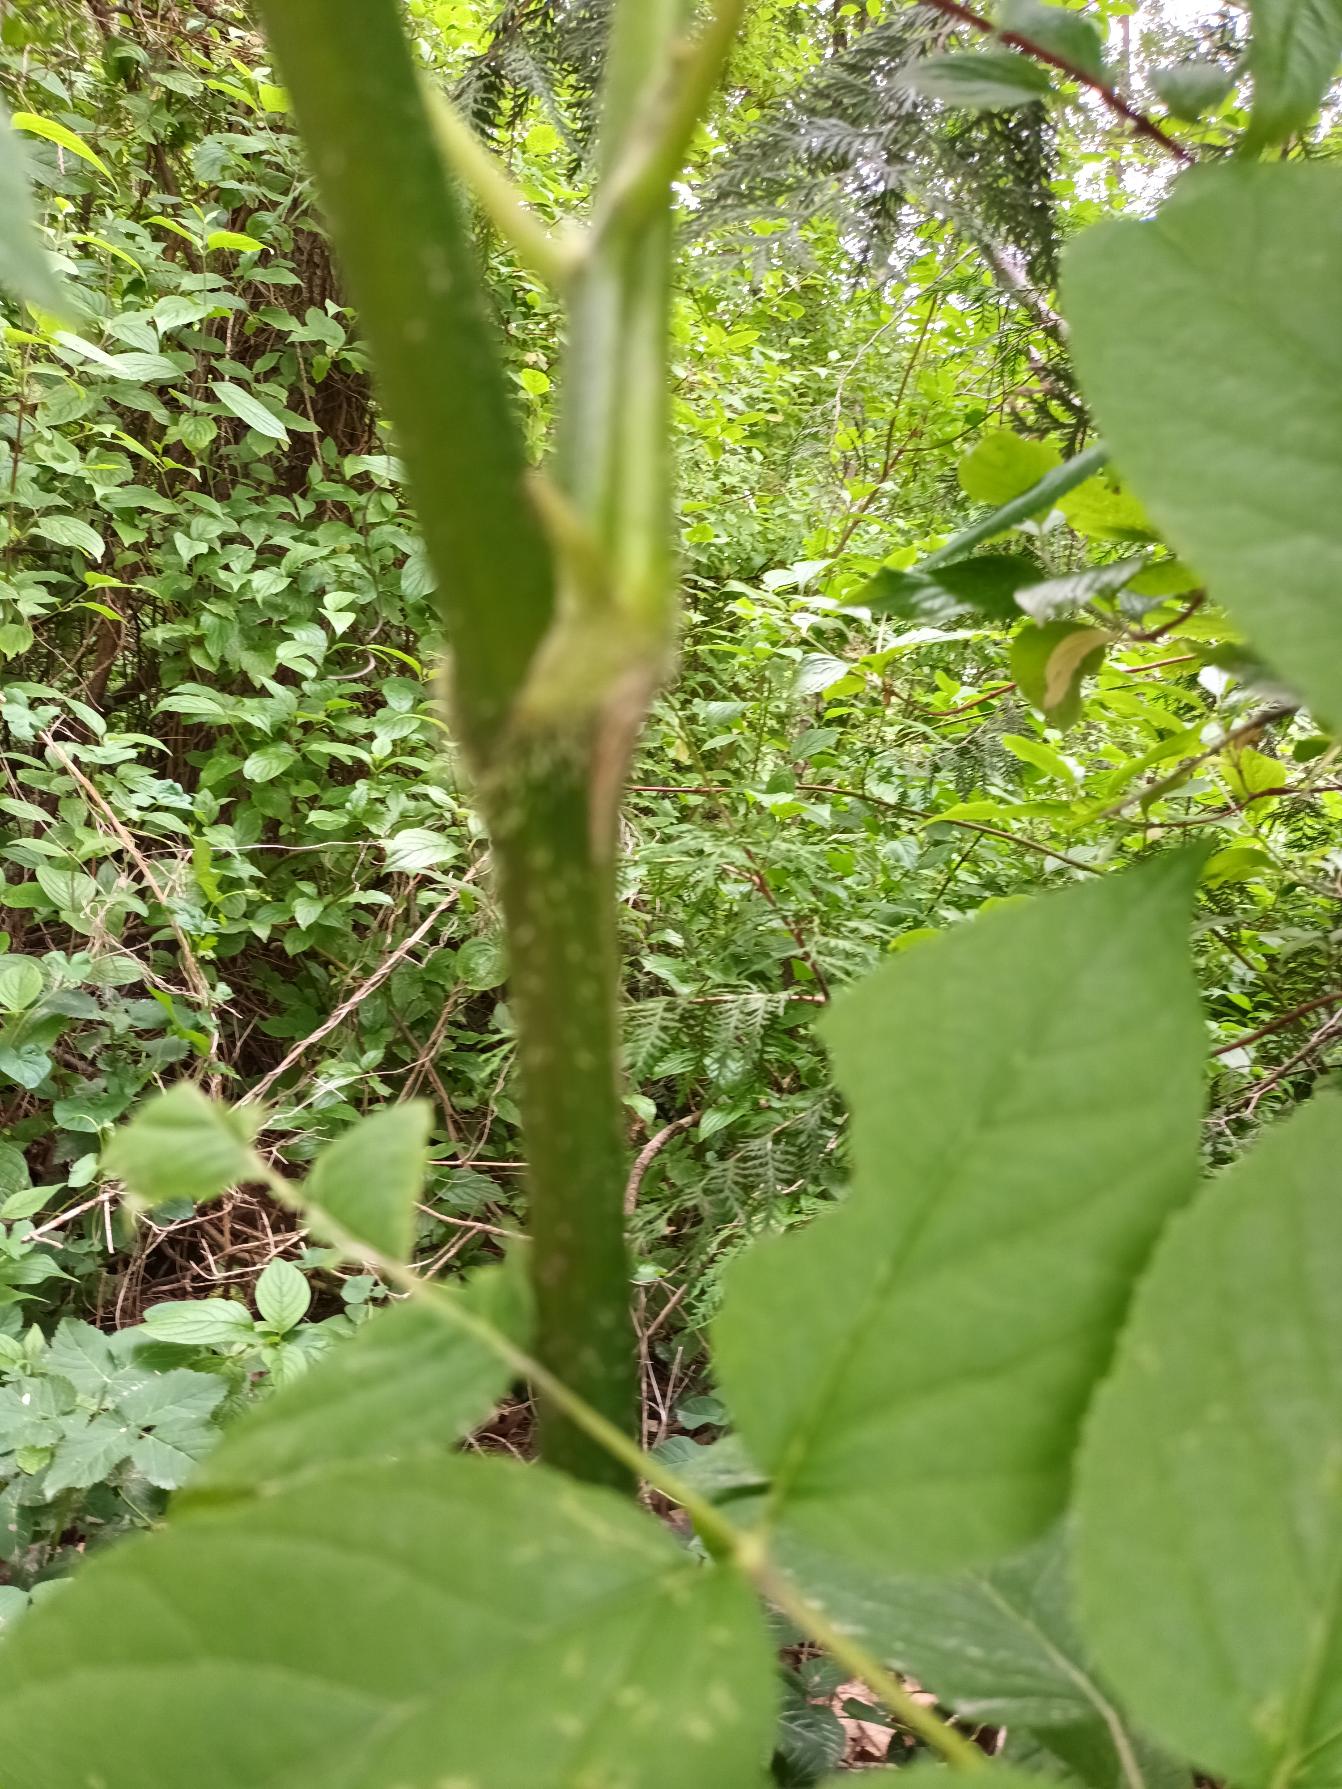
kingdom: Plantae
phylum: Tracheophyta
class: Magnoliopsida
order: Apiales
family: Araliaceae
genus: Aralia
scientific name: Aralia elata
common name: Have-aralie
